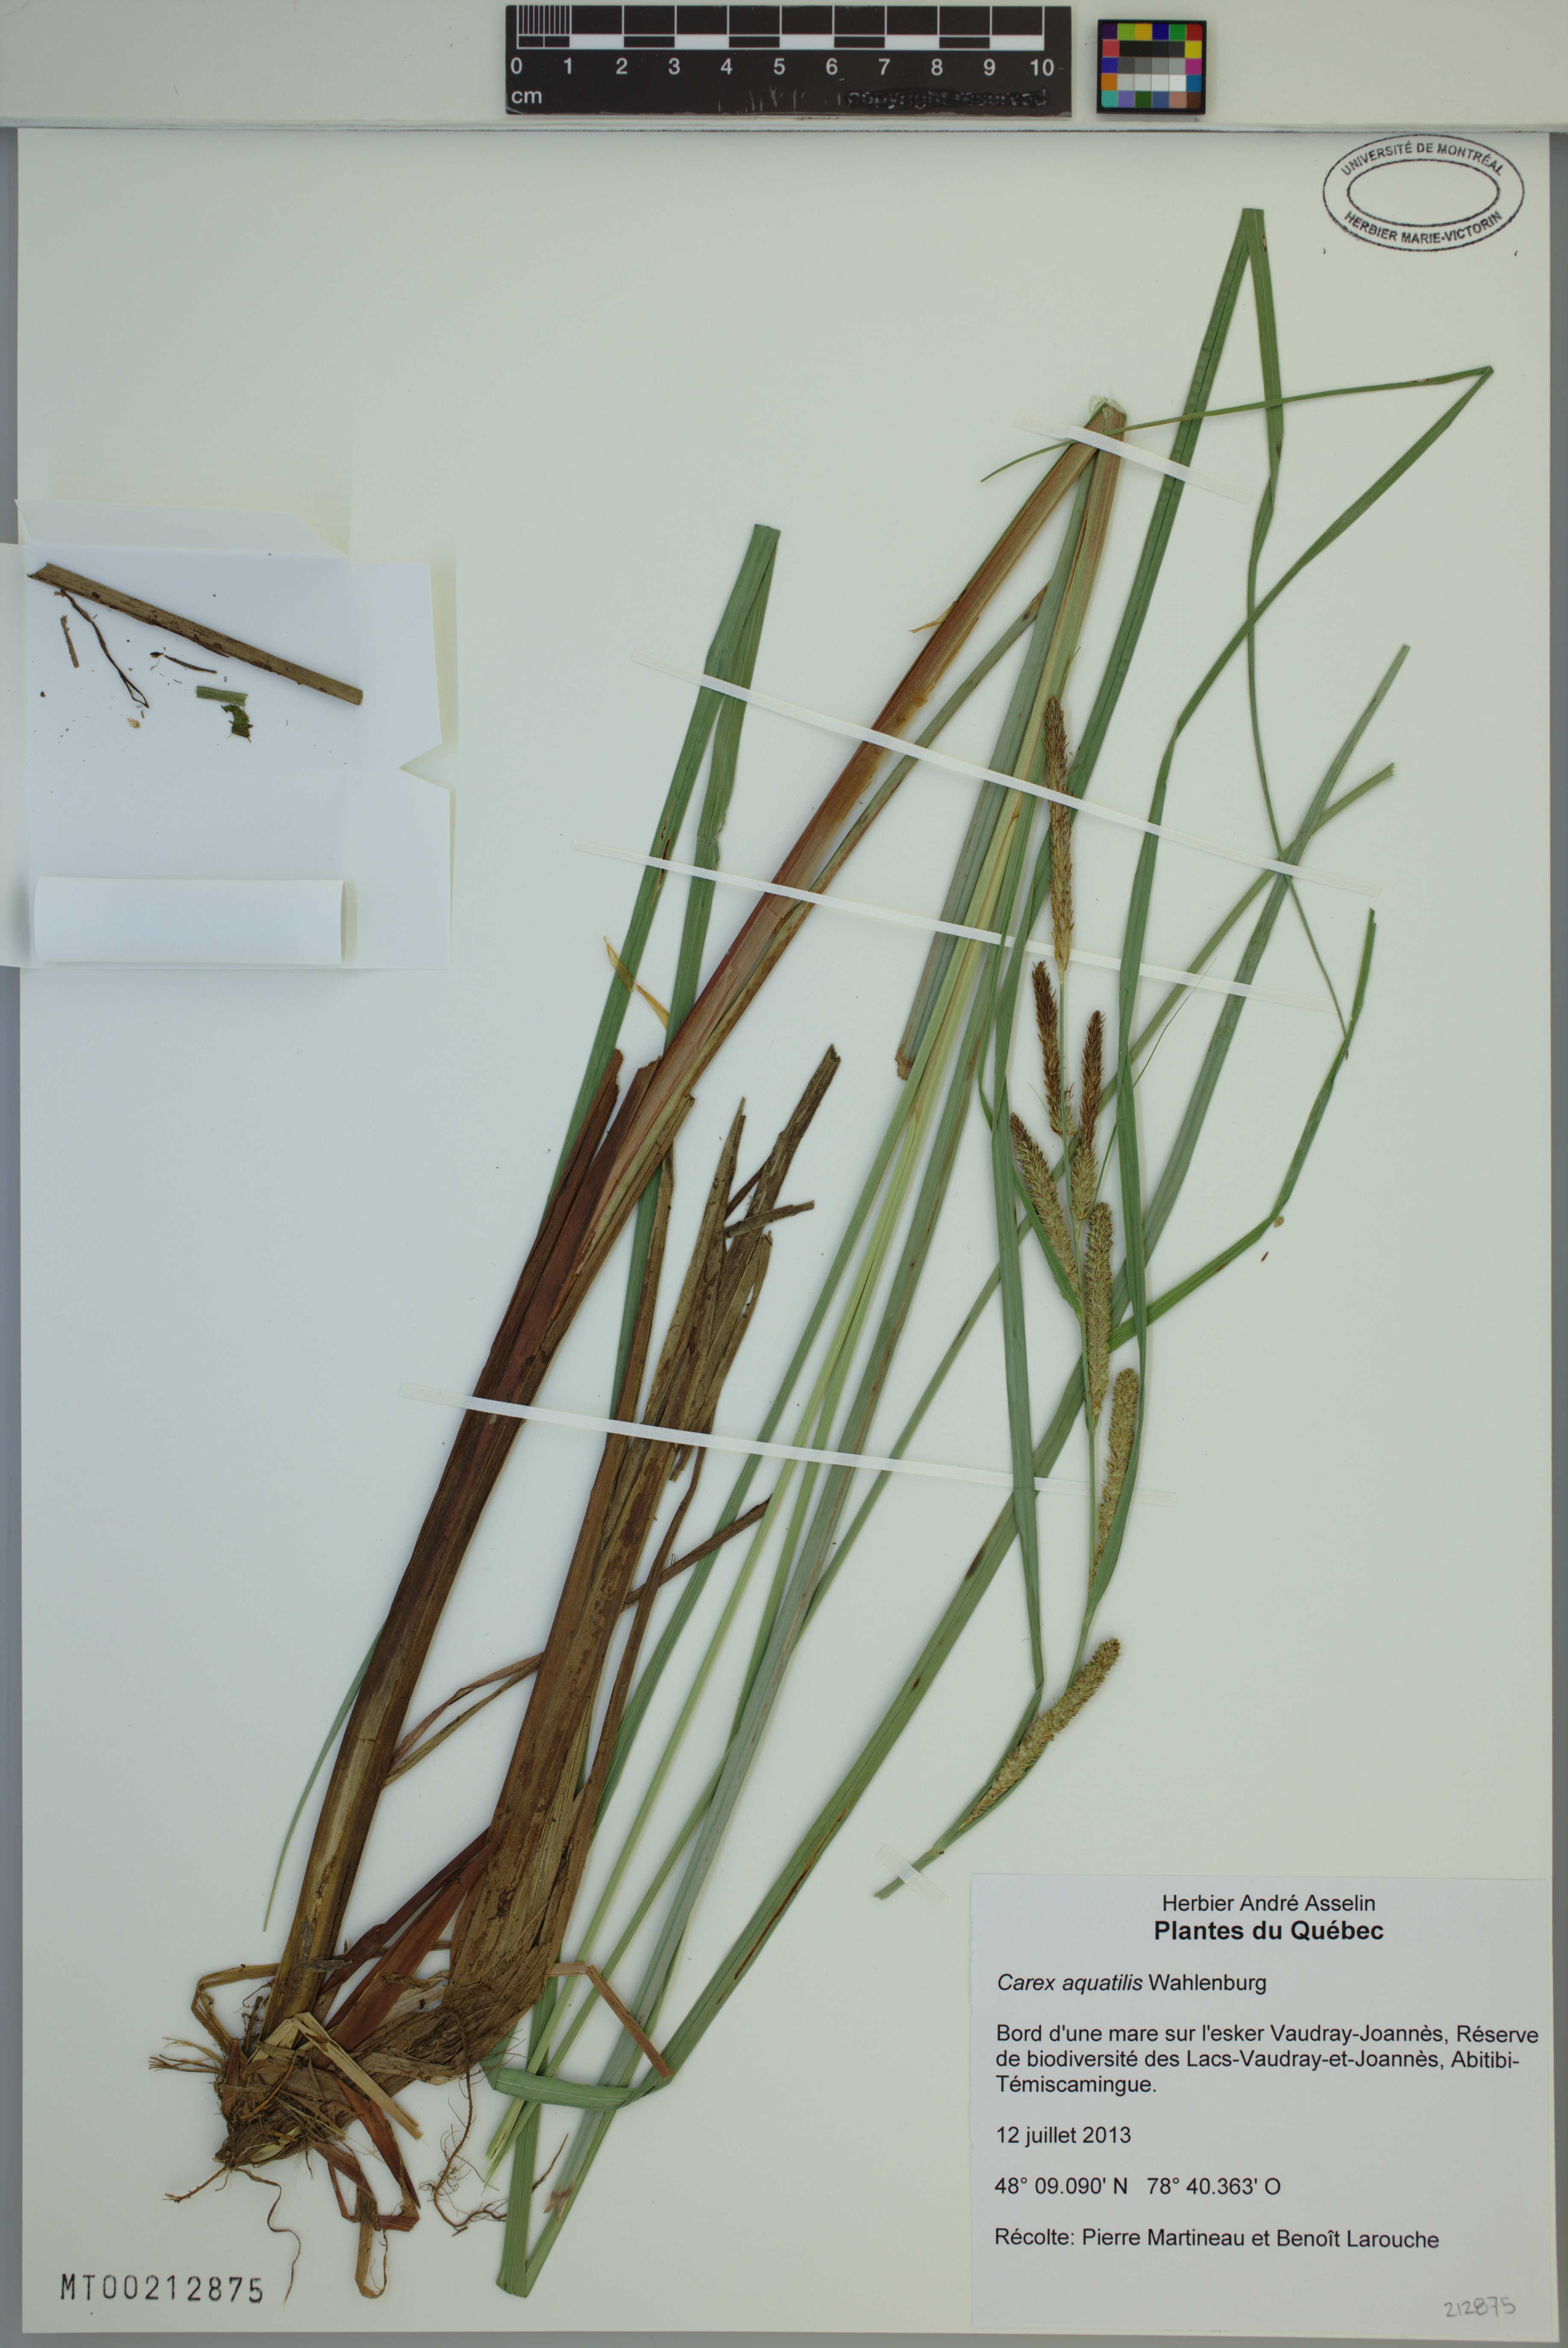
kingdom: Plantae
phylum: Tracheophyta
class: Liliopsida
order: Poales
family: Cyperaceae
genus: Carex
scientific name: Carex aquatilis
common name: Water sedge
